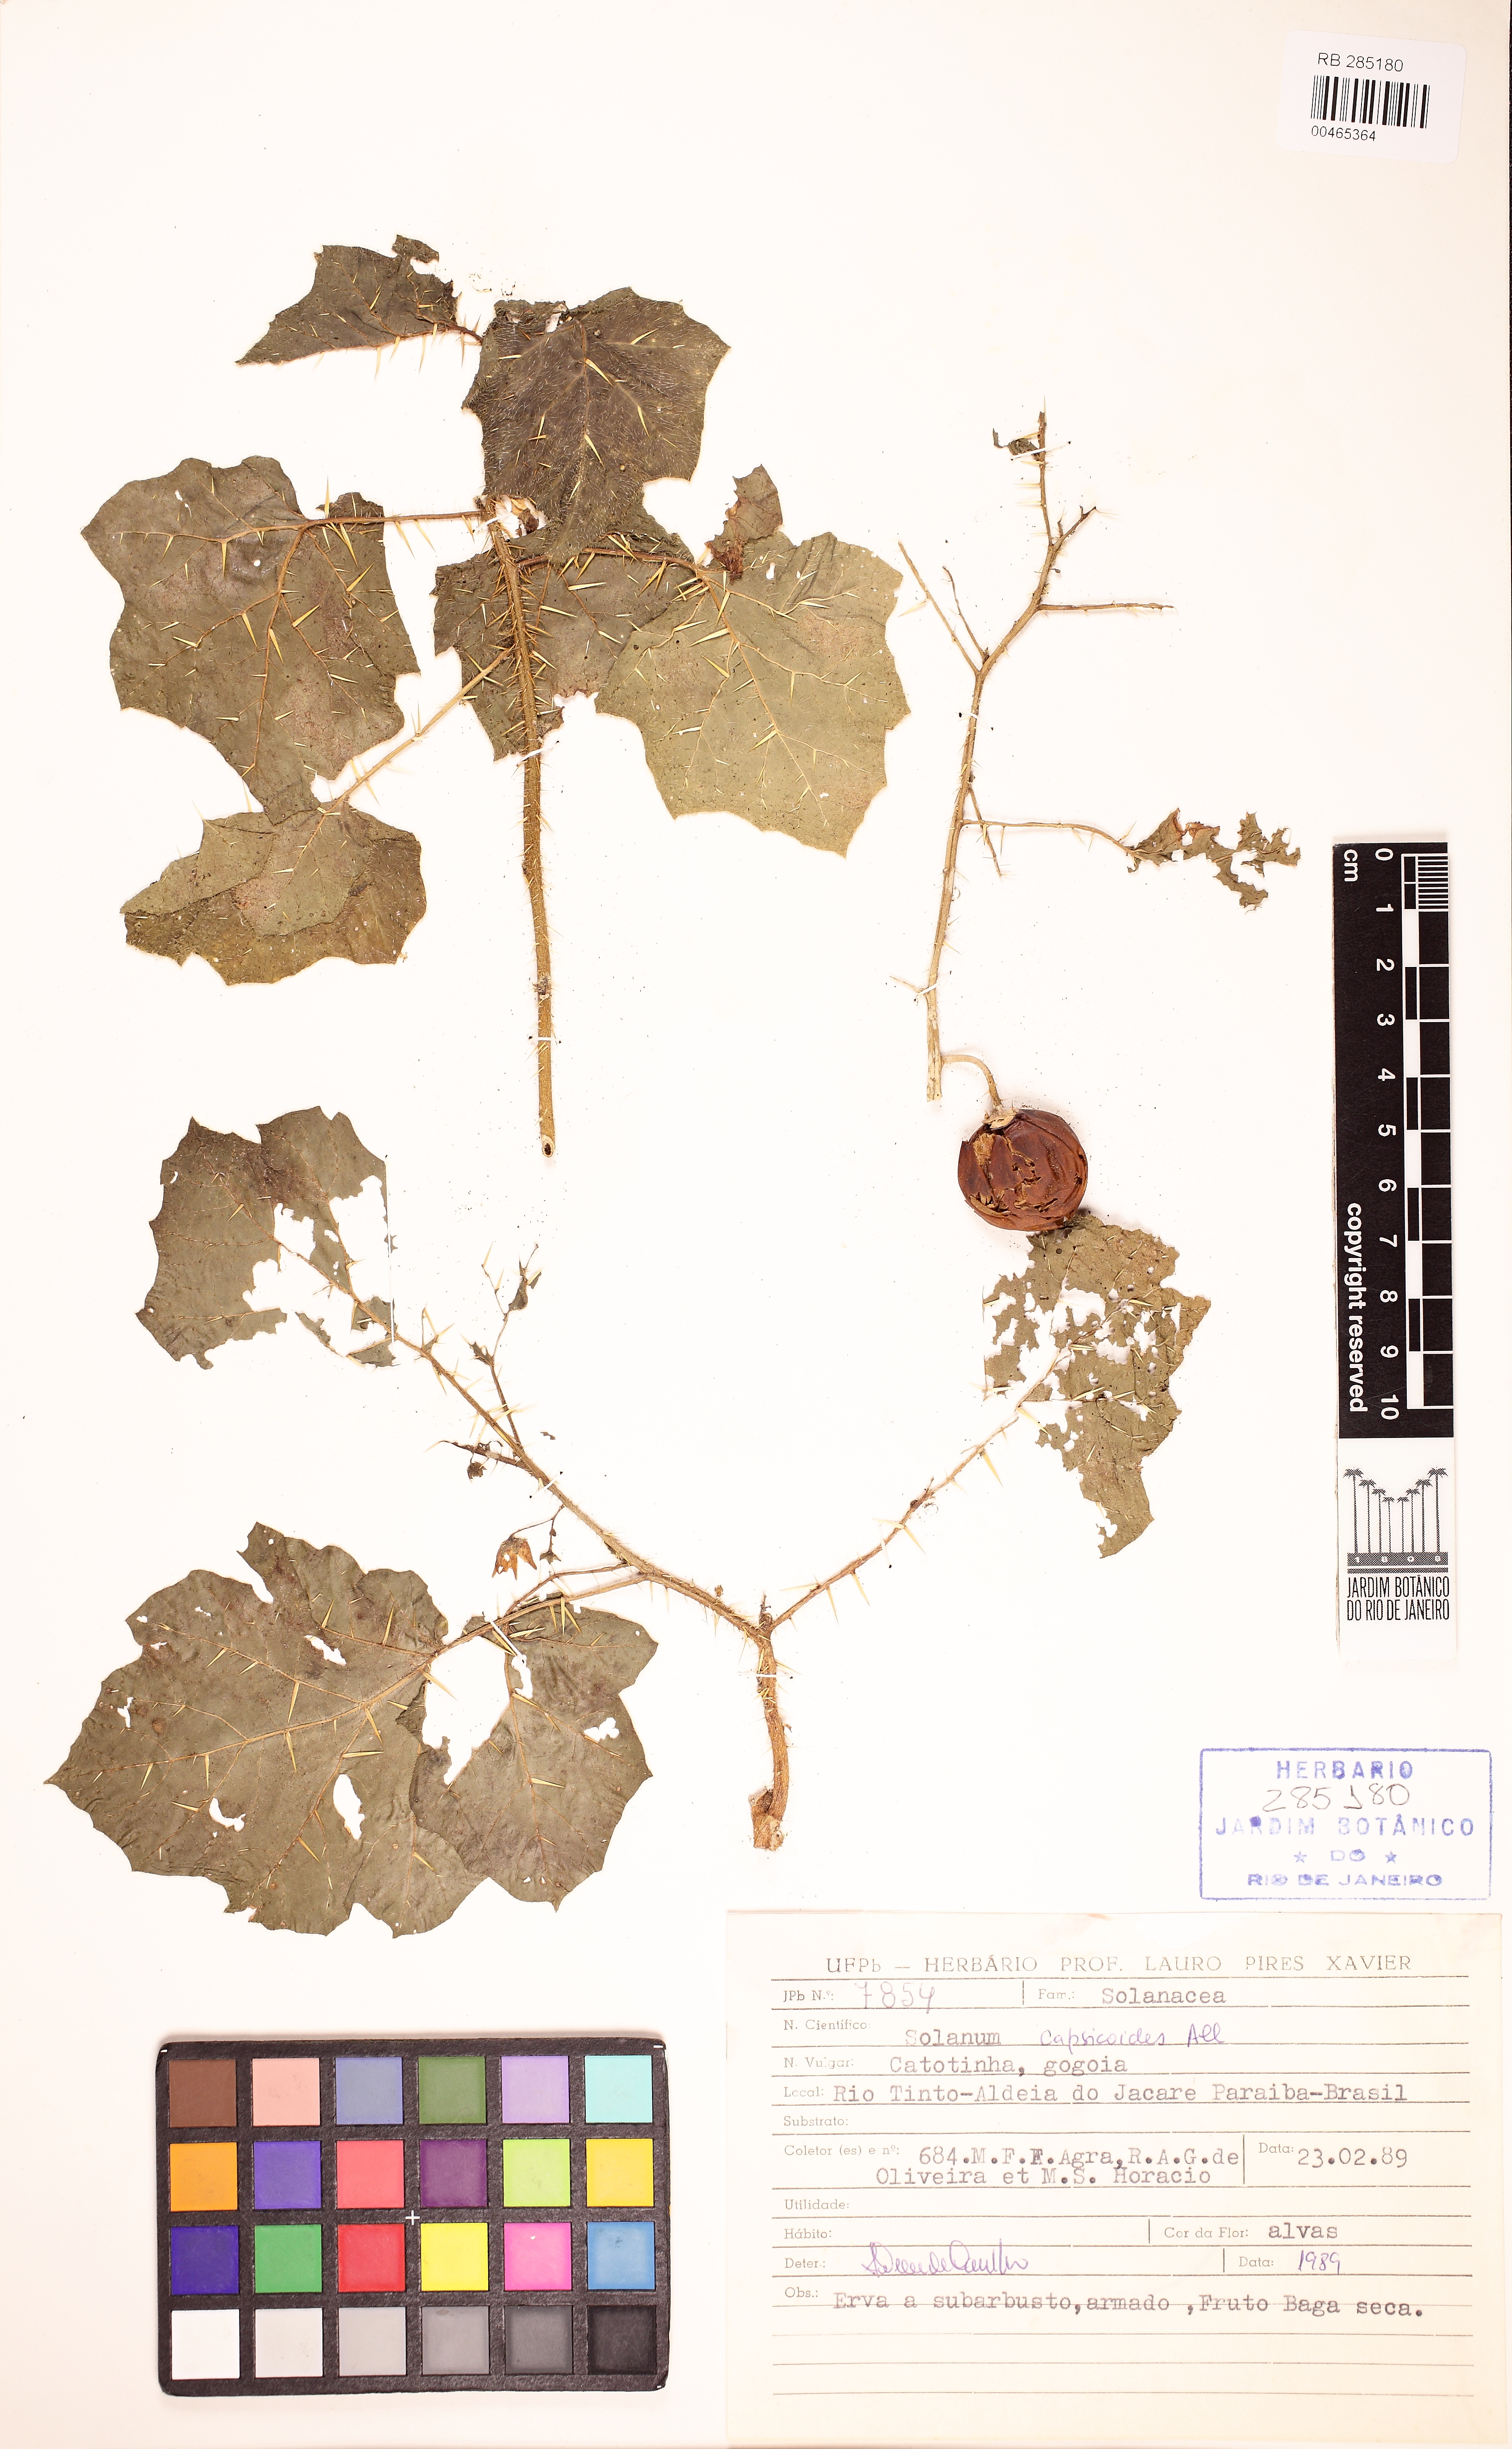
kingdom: Plantae
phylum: Tracheophyta
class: Magnoliopsida
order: Solanales
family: Solanaceae
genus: Solanum
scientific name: Solanum capsicoides
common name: Cockroach berry
